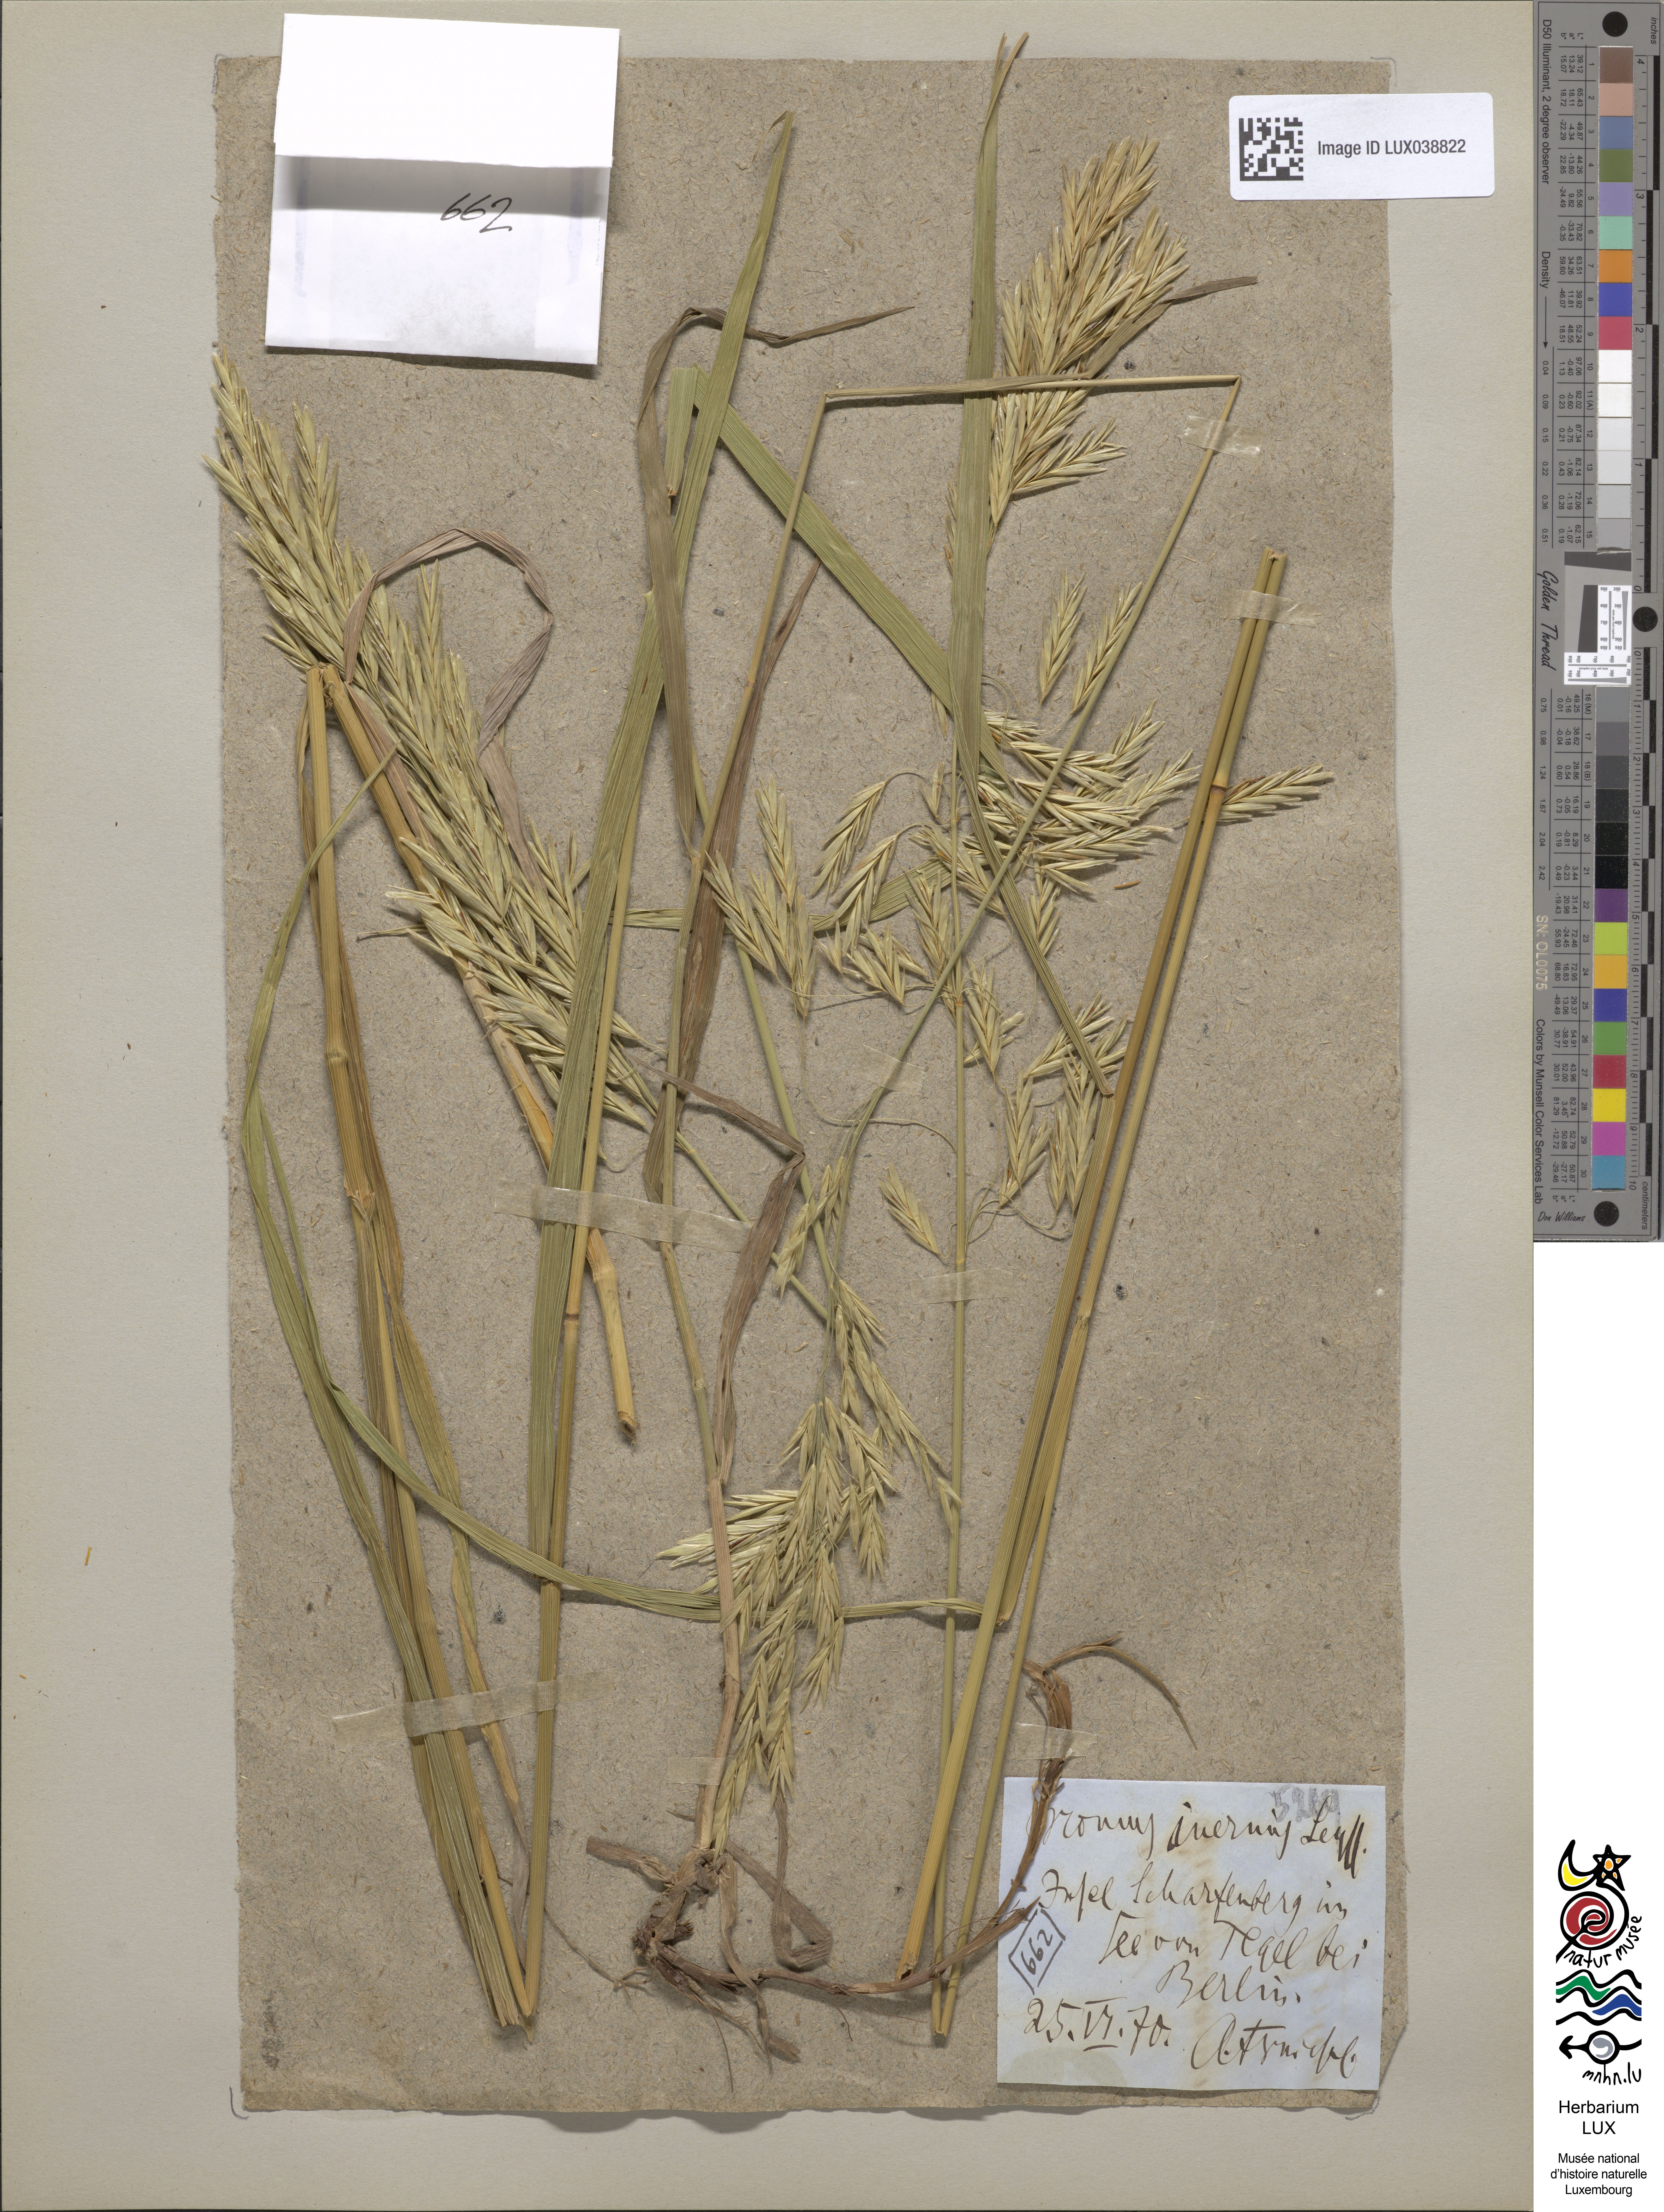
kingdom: Plantae
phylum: Tracheophyta
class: Liliopsida
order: Poales
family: Poaceae
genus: Bromus
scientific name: Bromus inermis
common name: Smooth brome
